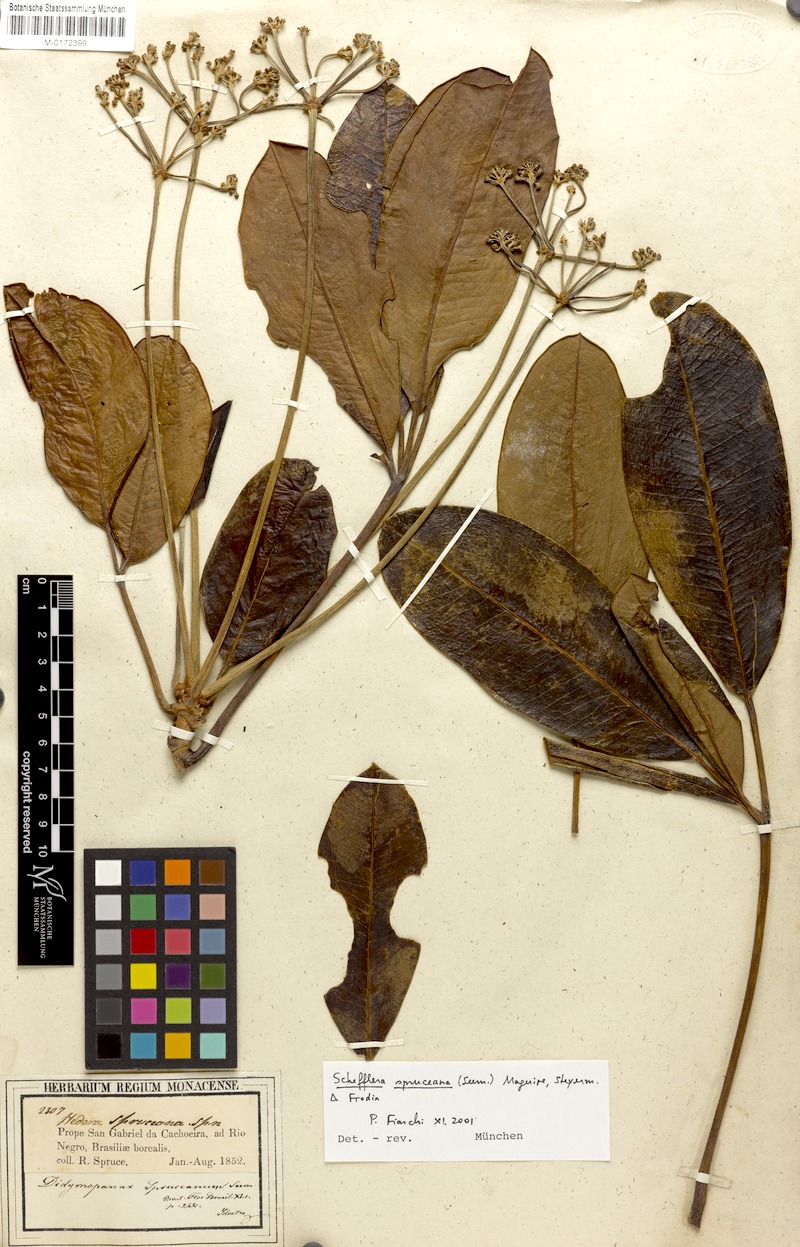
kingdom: Plantae
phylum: Tracheophyta
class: Magnoliopsida
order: Apiales
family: Araliaceae
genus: Crepinella
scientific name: Crepinella spruceana
